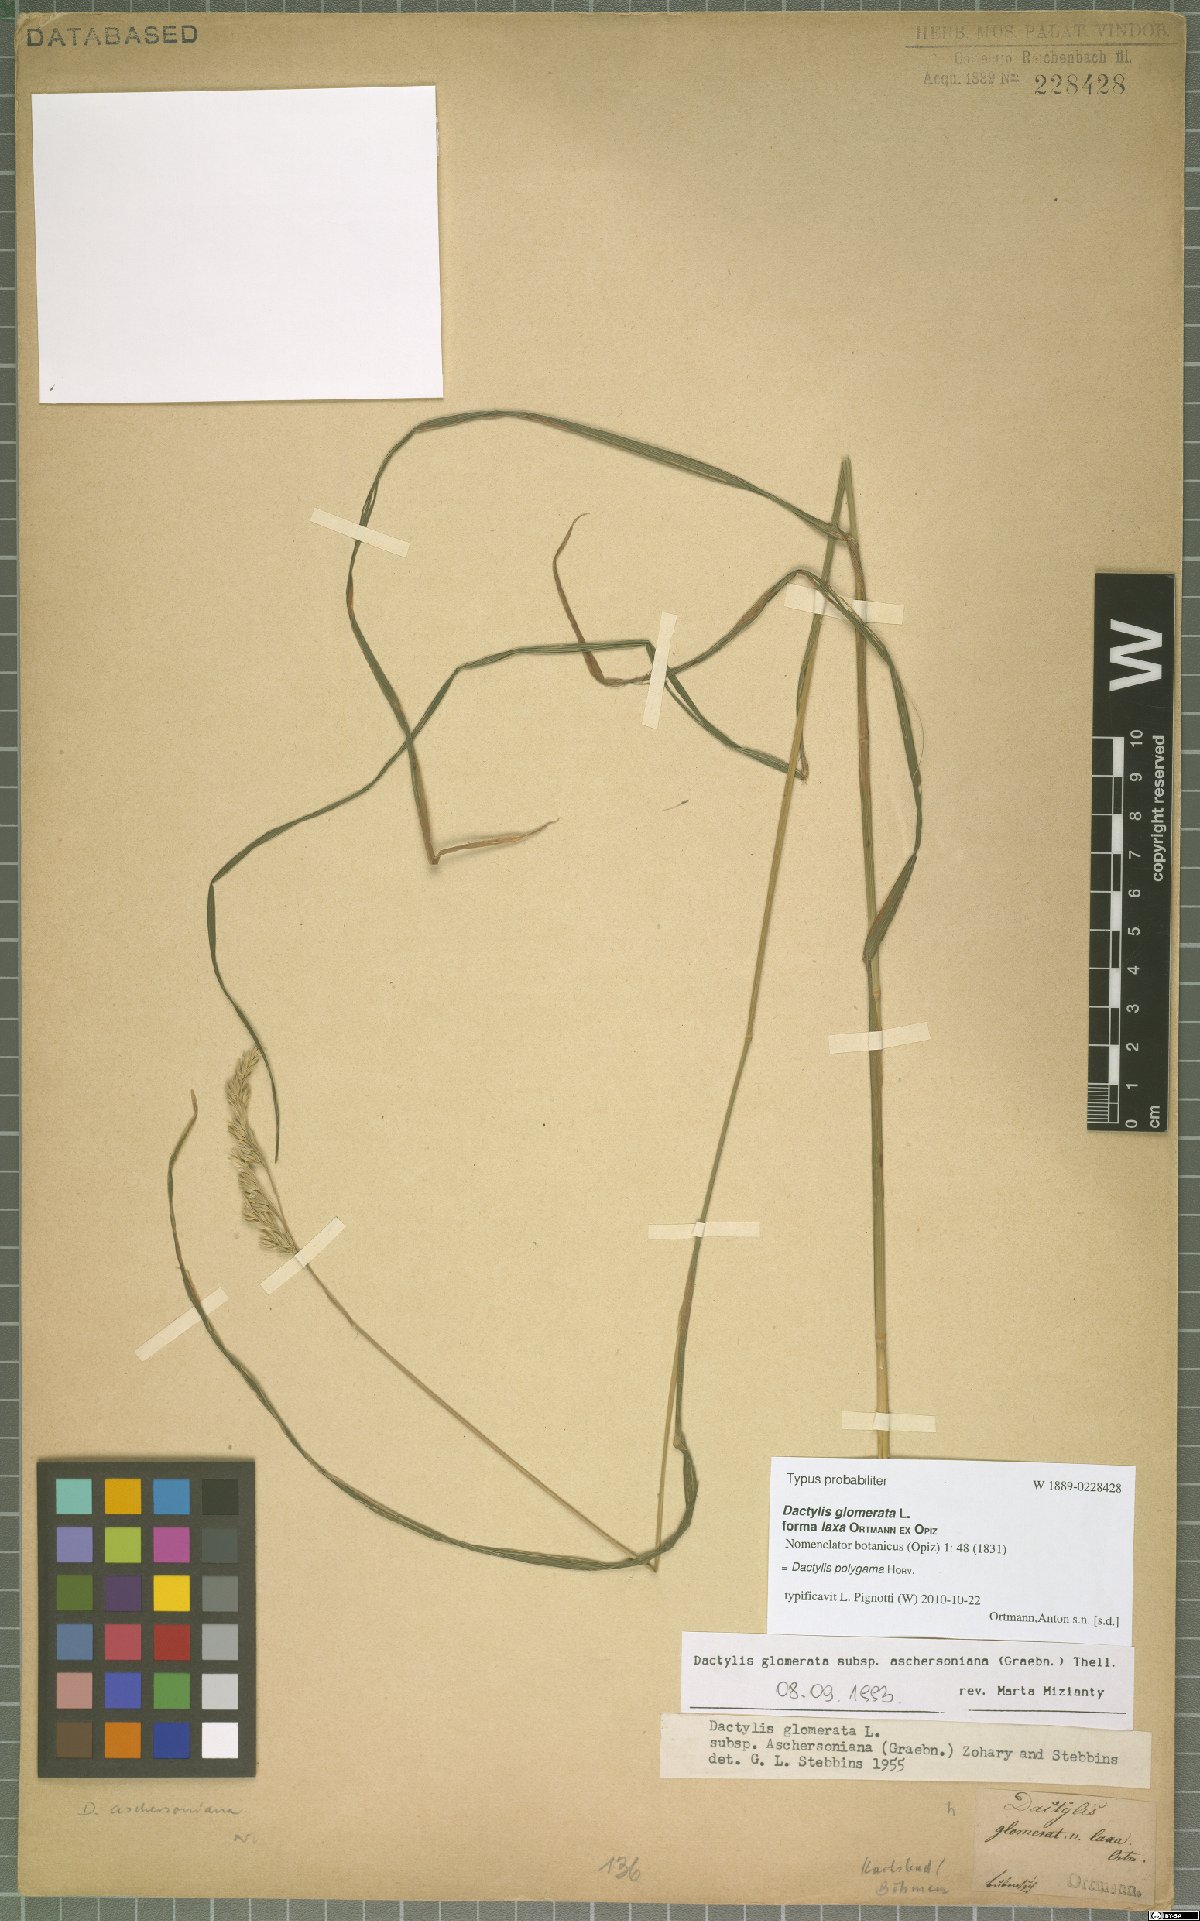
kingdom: Plantae
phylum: Tracheophyta
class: Liliopsida
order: Poales
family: Poaceae
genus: Dactylis
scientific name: Dactylis glomerata
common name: Orchardgrass
